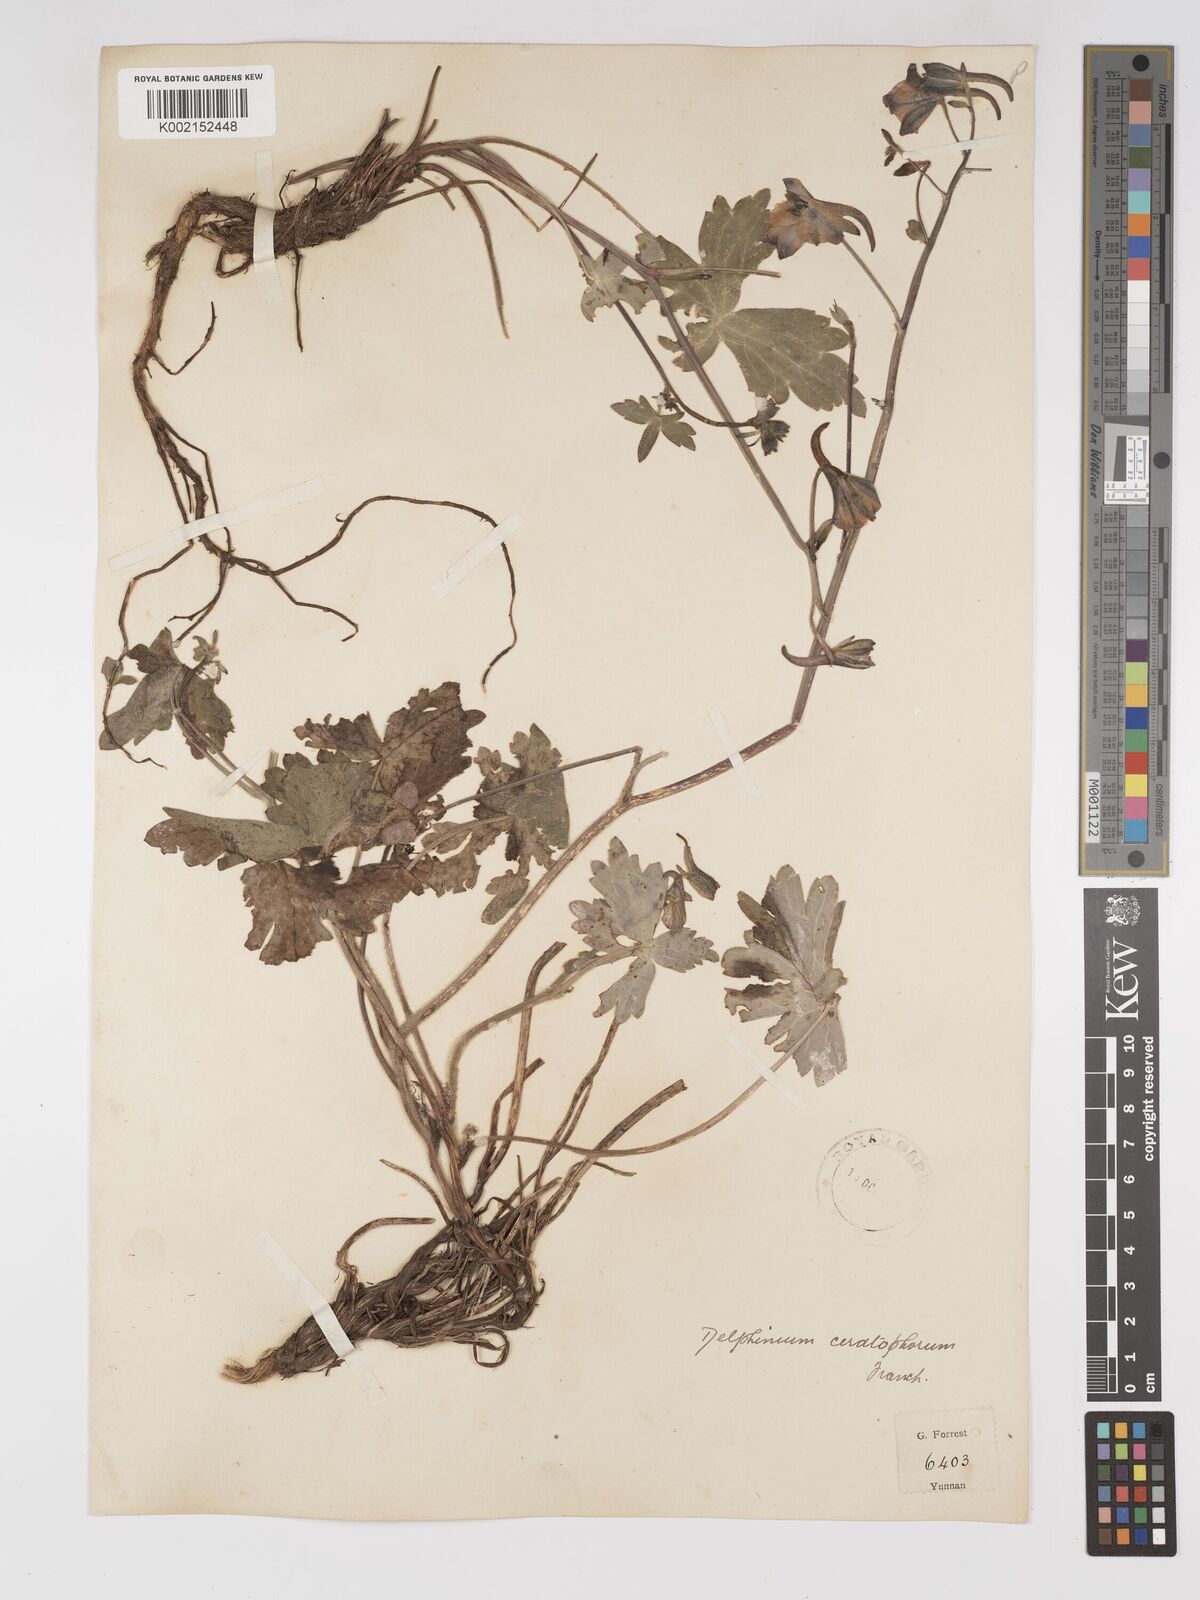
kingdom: Plantae
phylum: Tracheophyta
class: Magnoliopsida
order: Ranunculales
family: Ranunculaceae
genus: Delphinium
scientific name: Delphinium ceratophorum
